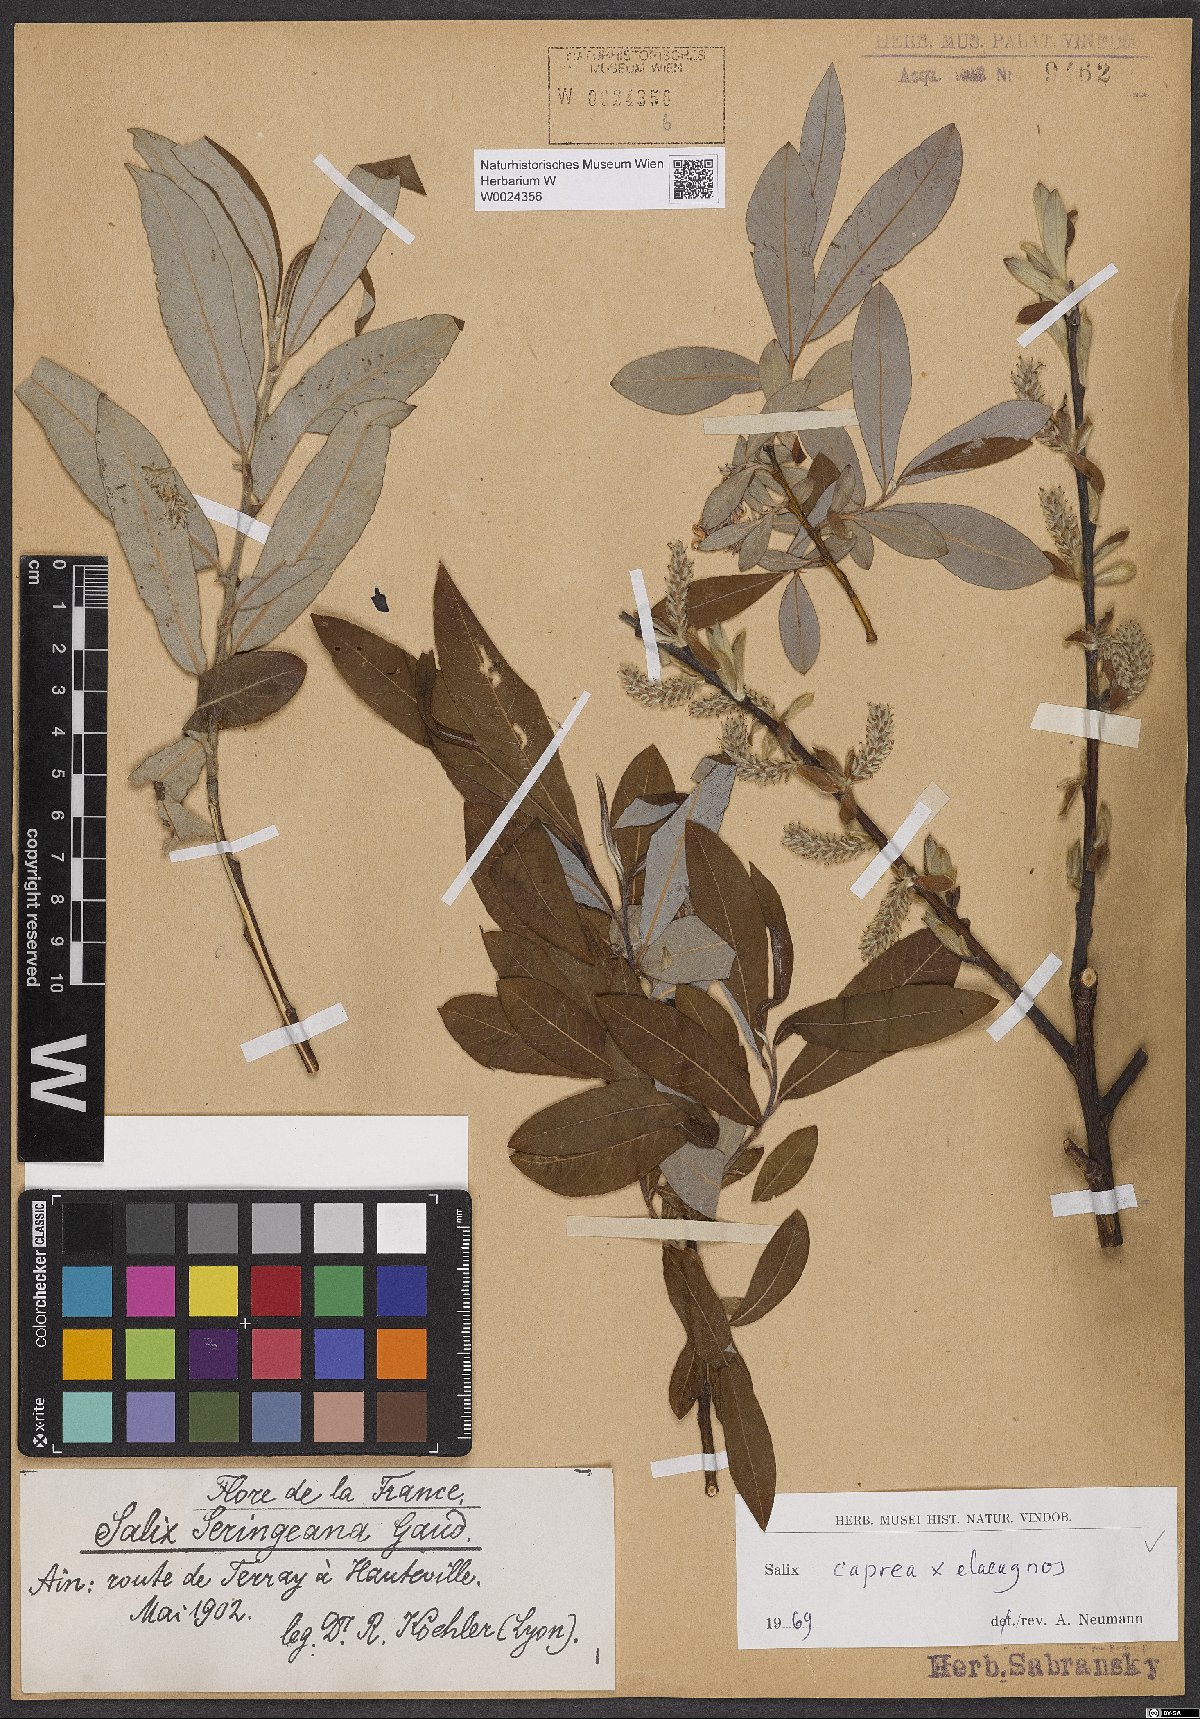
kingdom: Plantae
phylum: Tracheophyta
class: Magnoliopsida
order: Malpighiales
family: Salicaceae
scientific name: Salicaceae
